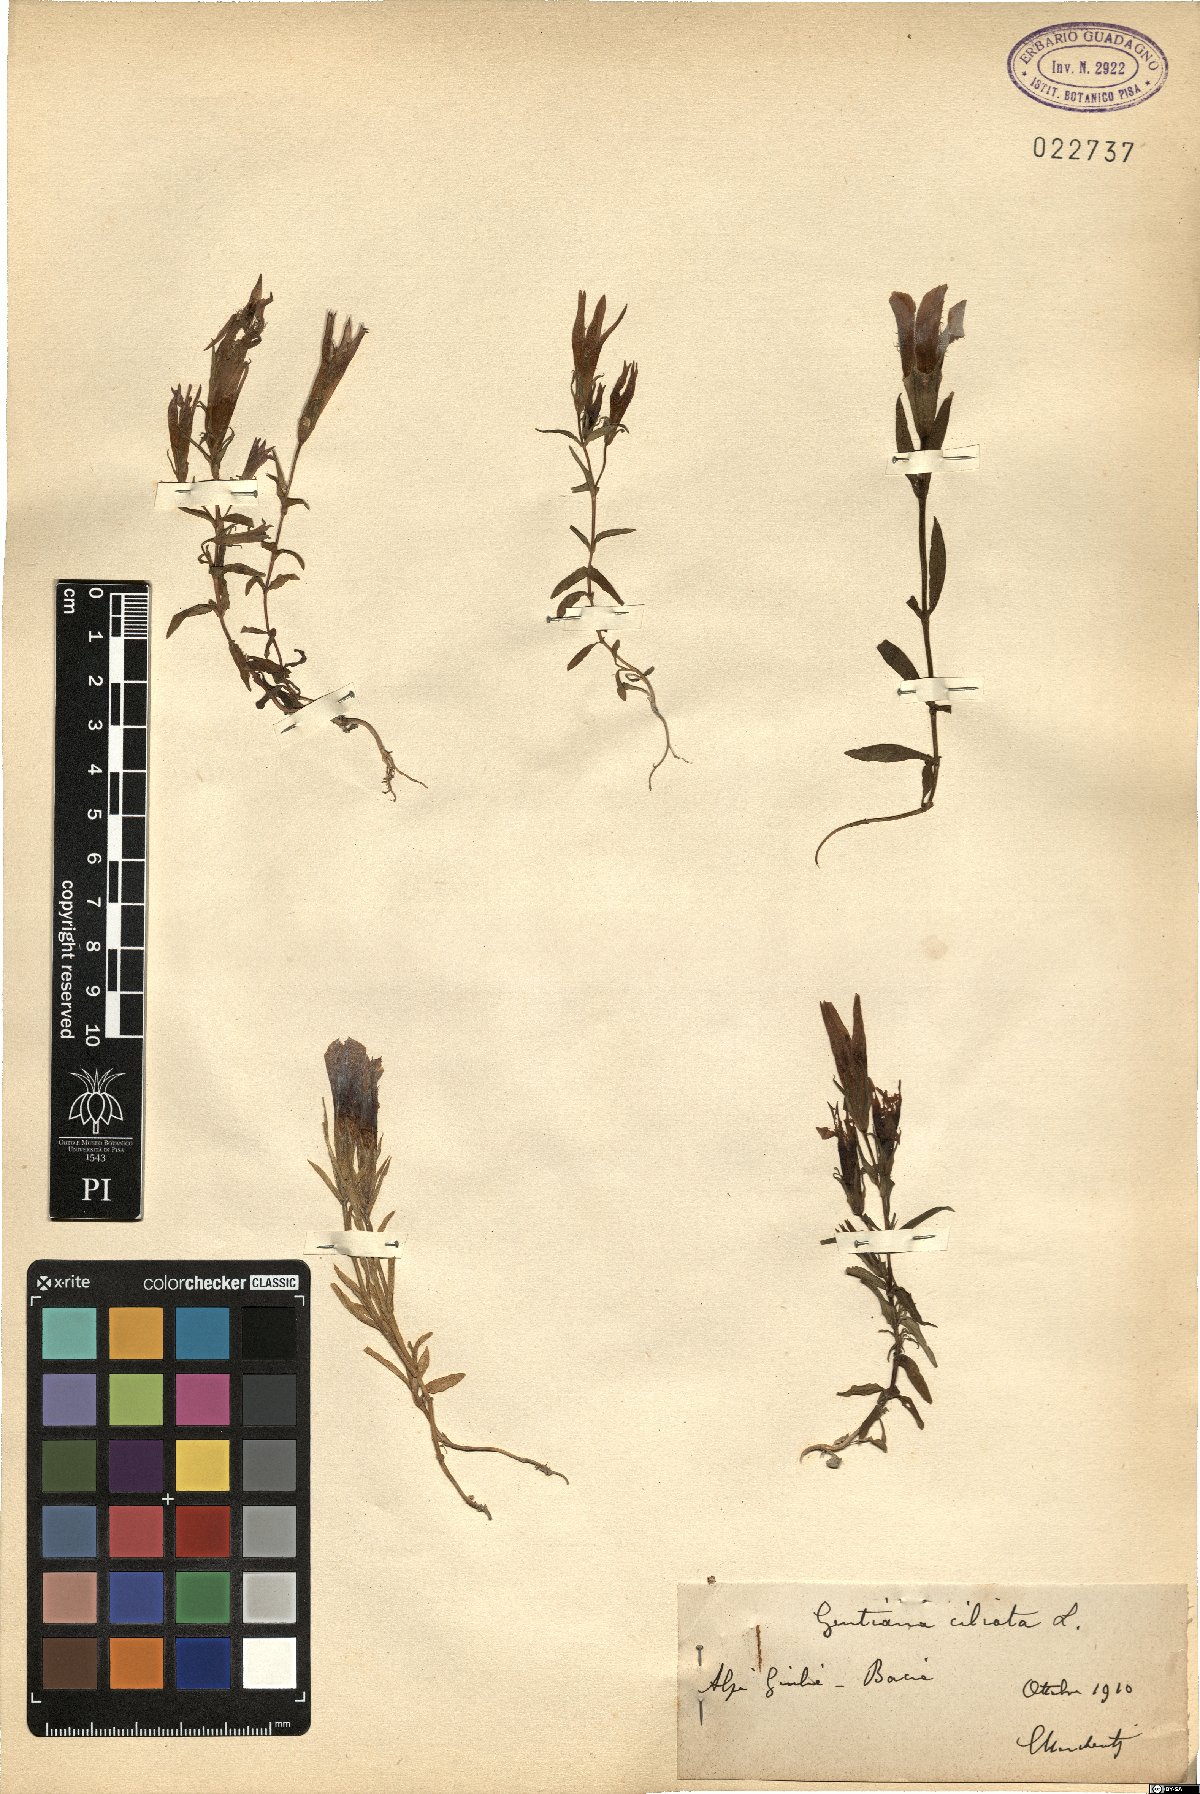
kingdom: Plantae
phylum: Tracheophyta
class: Magnoliopsida
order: Gentianales
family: Gentianaceae
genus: Gentianopsis
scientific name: Gentianopsis ciliata
